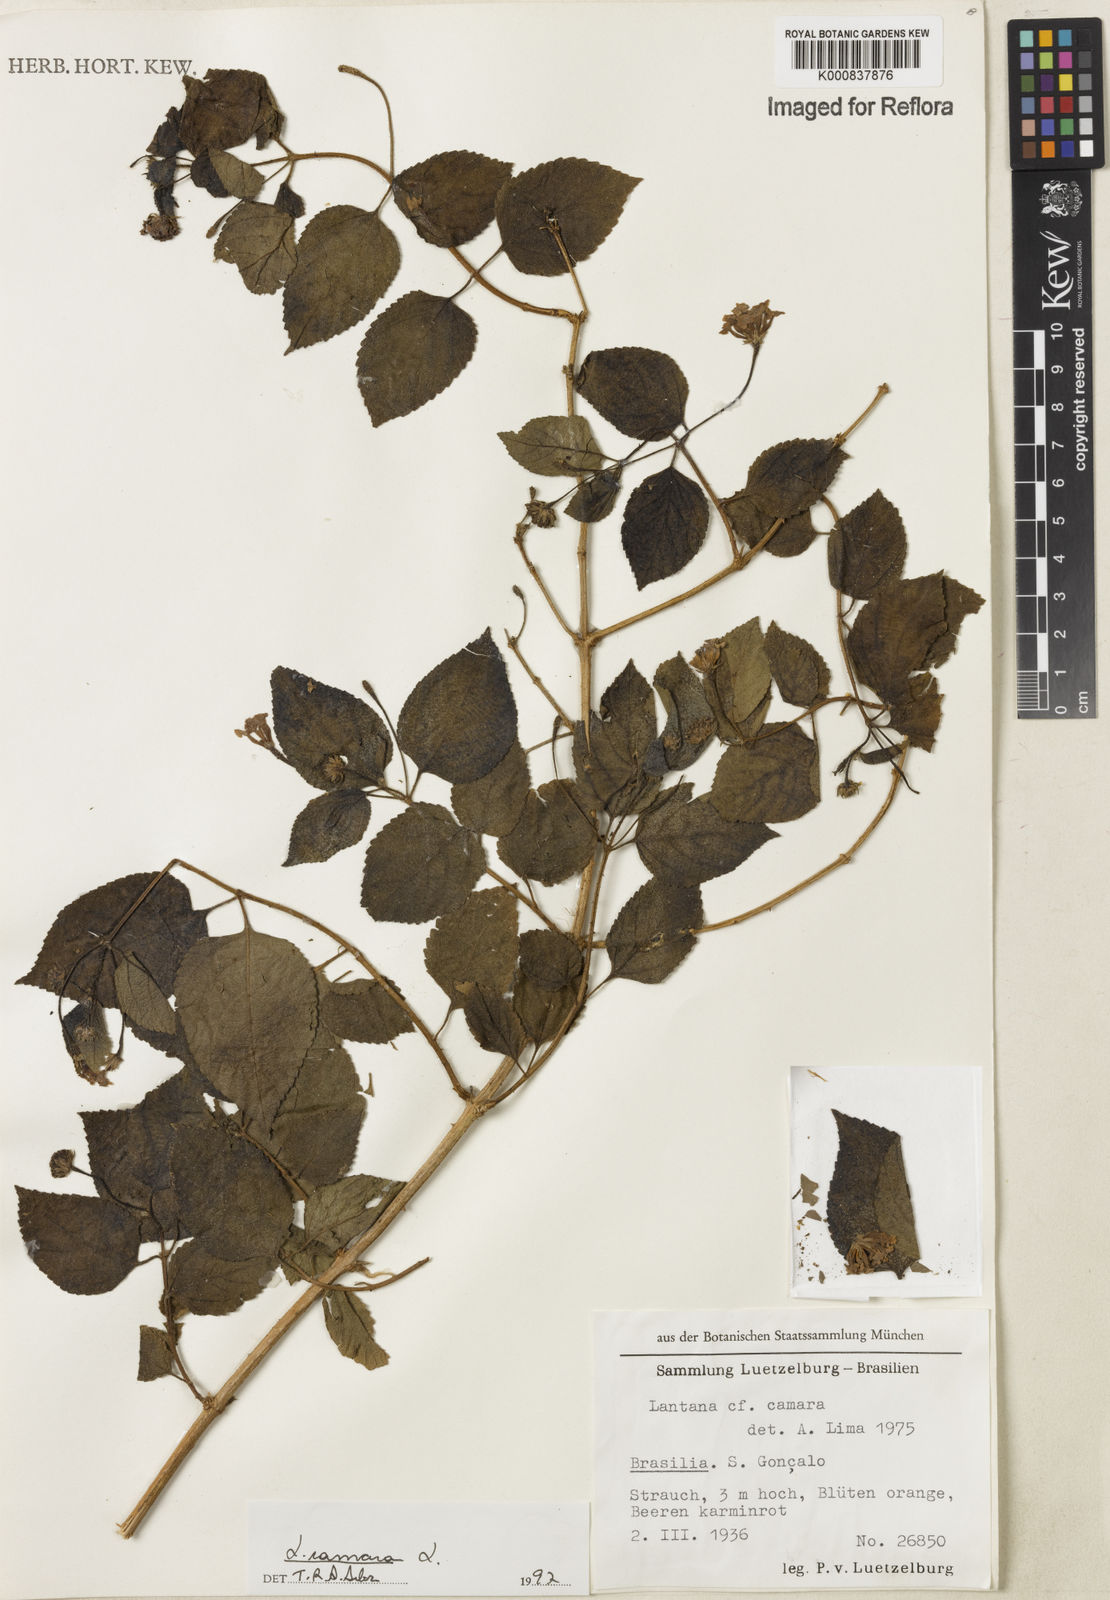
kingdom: Plantae
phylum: Tracheophyta
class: Magnoliopsida
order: Lamiales
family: Verbenaceae
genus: Lantana
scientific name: Lantana camara
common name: Lantana
